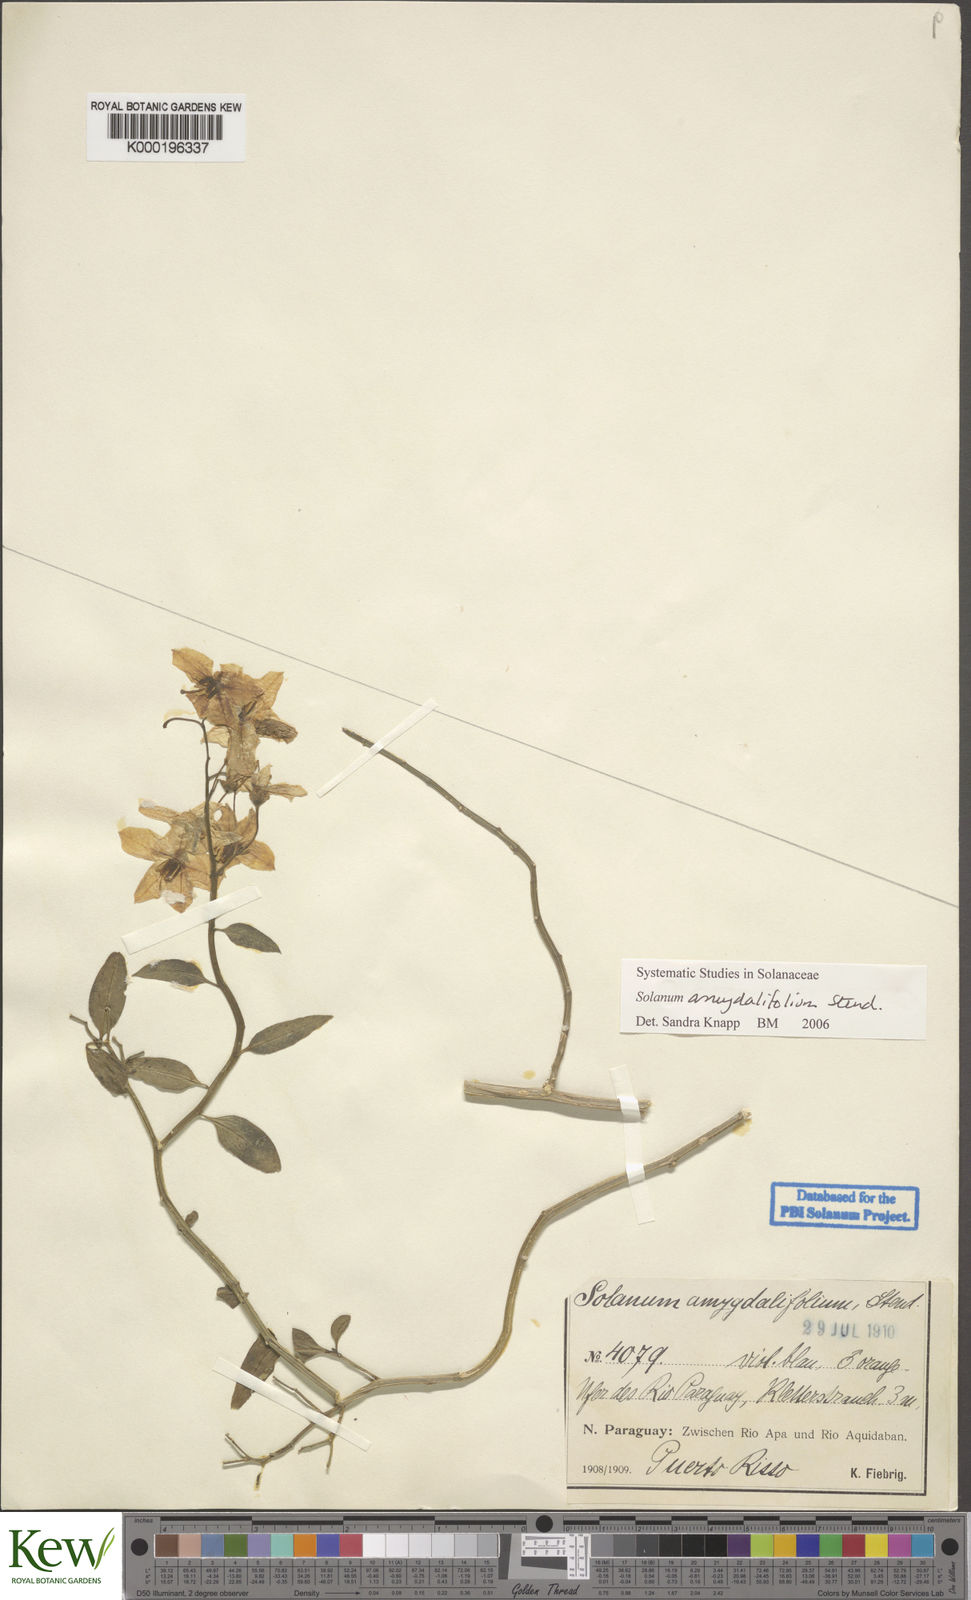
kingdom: Plantae
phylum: Tracheophyta
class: Magnoliopsida
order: Solanales
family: Solanaceae
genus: Solanum
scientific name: Solanum amygdalifolium
